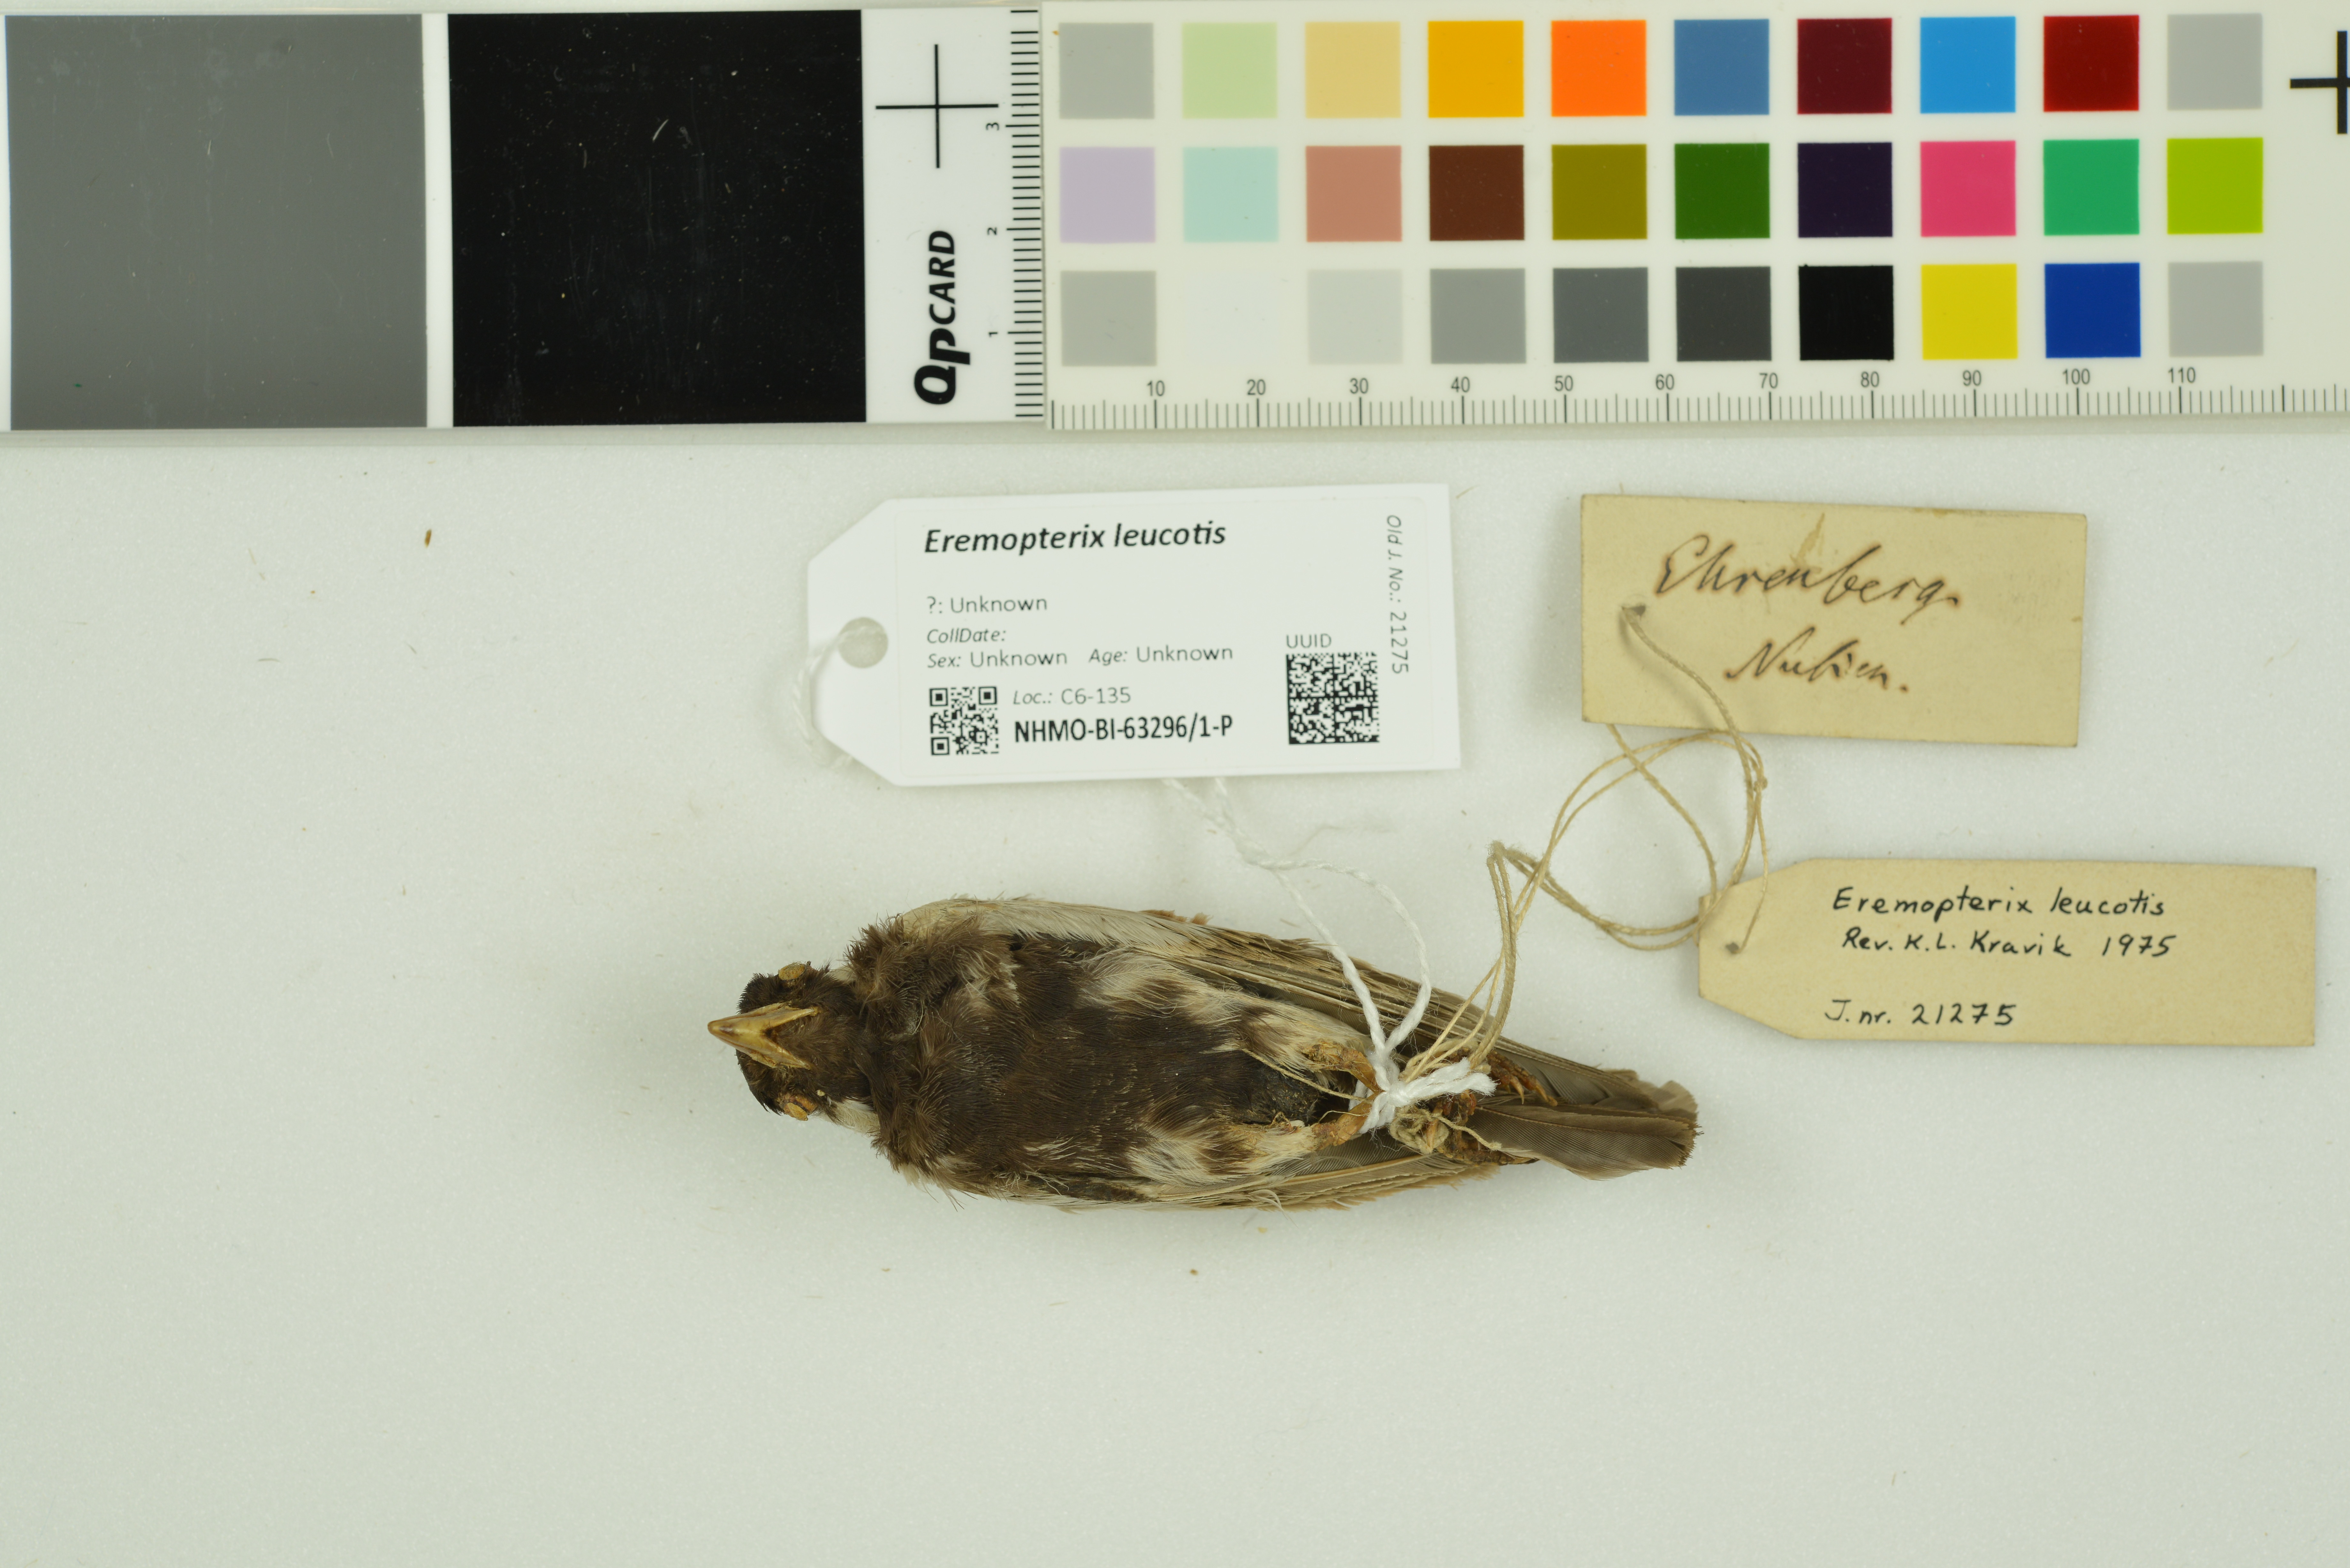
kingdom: Animalia
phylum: Chordata
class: Aves
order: Passeriformes
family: Alaudidae
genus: Eremopterix
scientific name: Eremopterix leucotis
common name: Chestnut-backed sparrow-lark
